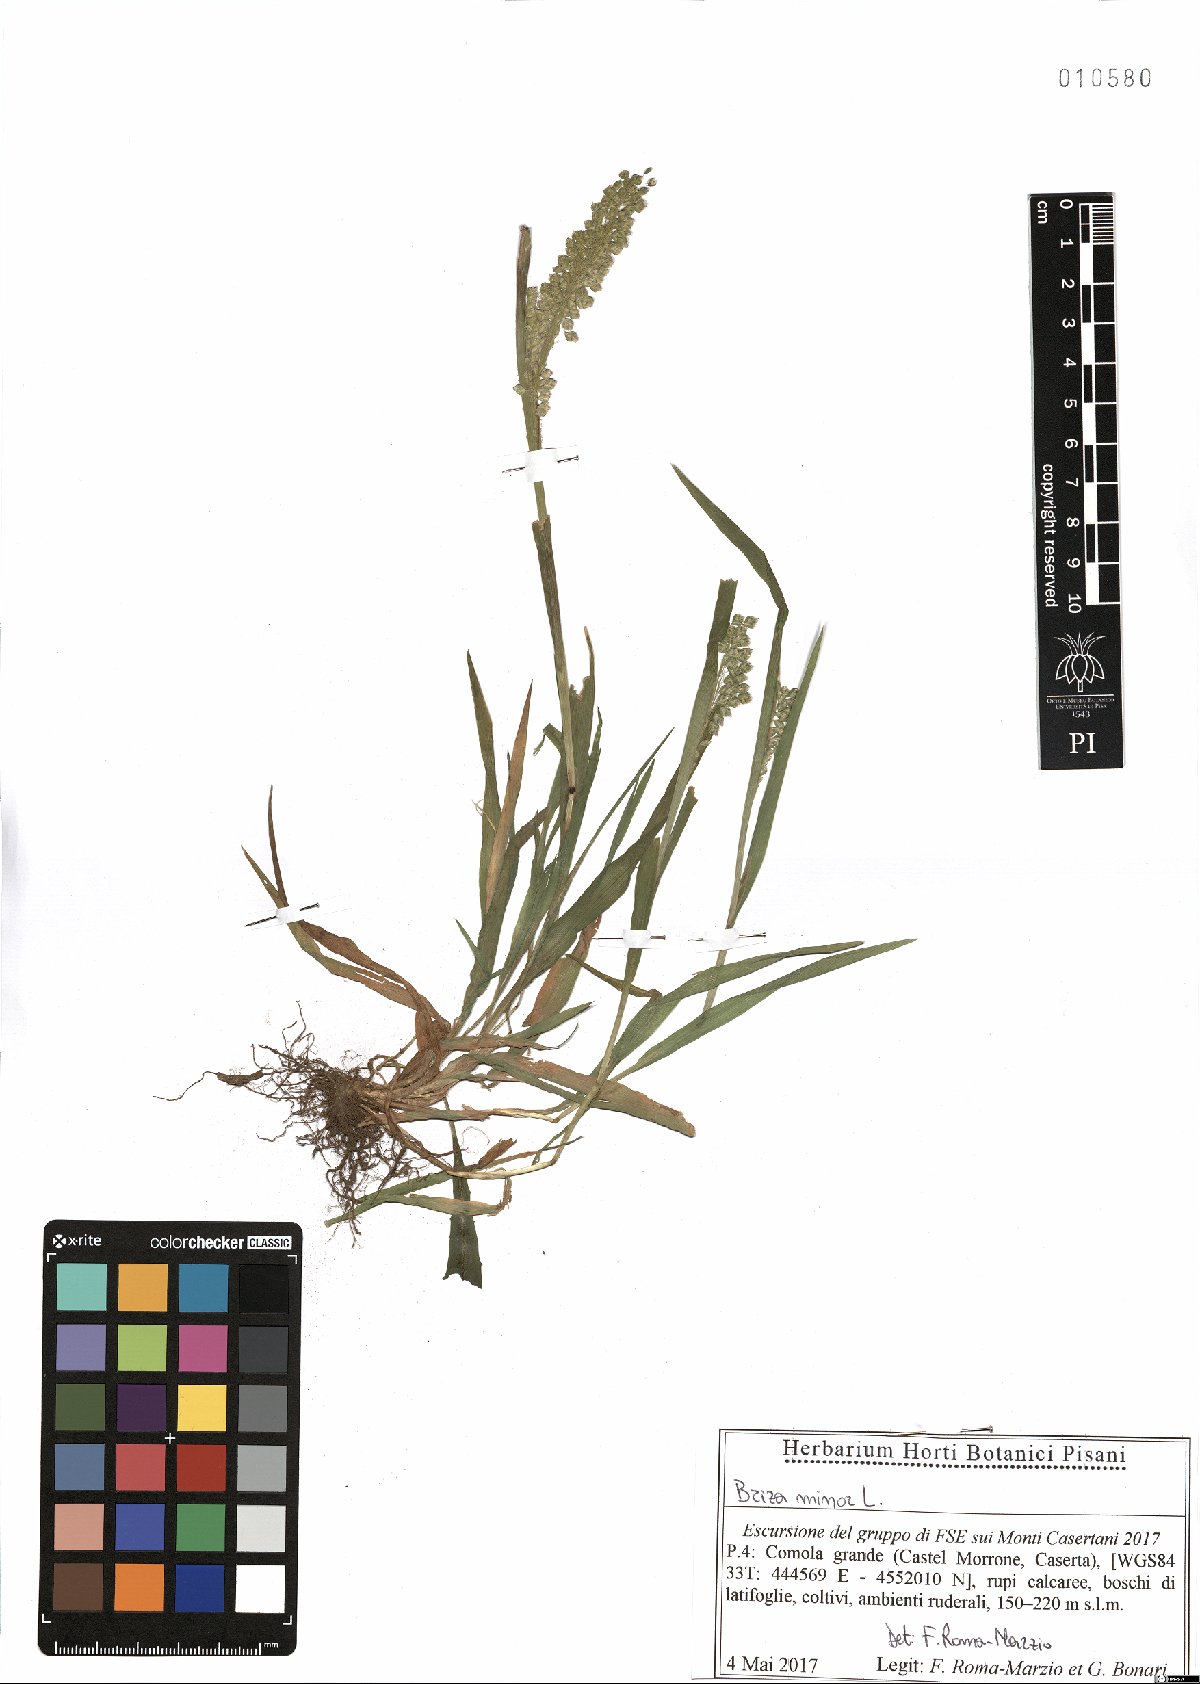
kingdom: Plantae
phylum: Tracheophyta
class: Liliopsida
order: Poales
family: Poaceae
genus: Briza
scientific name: Briza minor
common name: Lesser quaking-grass
